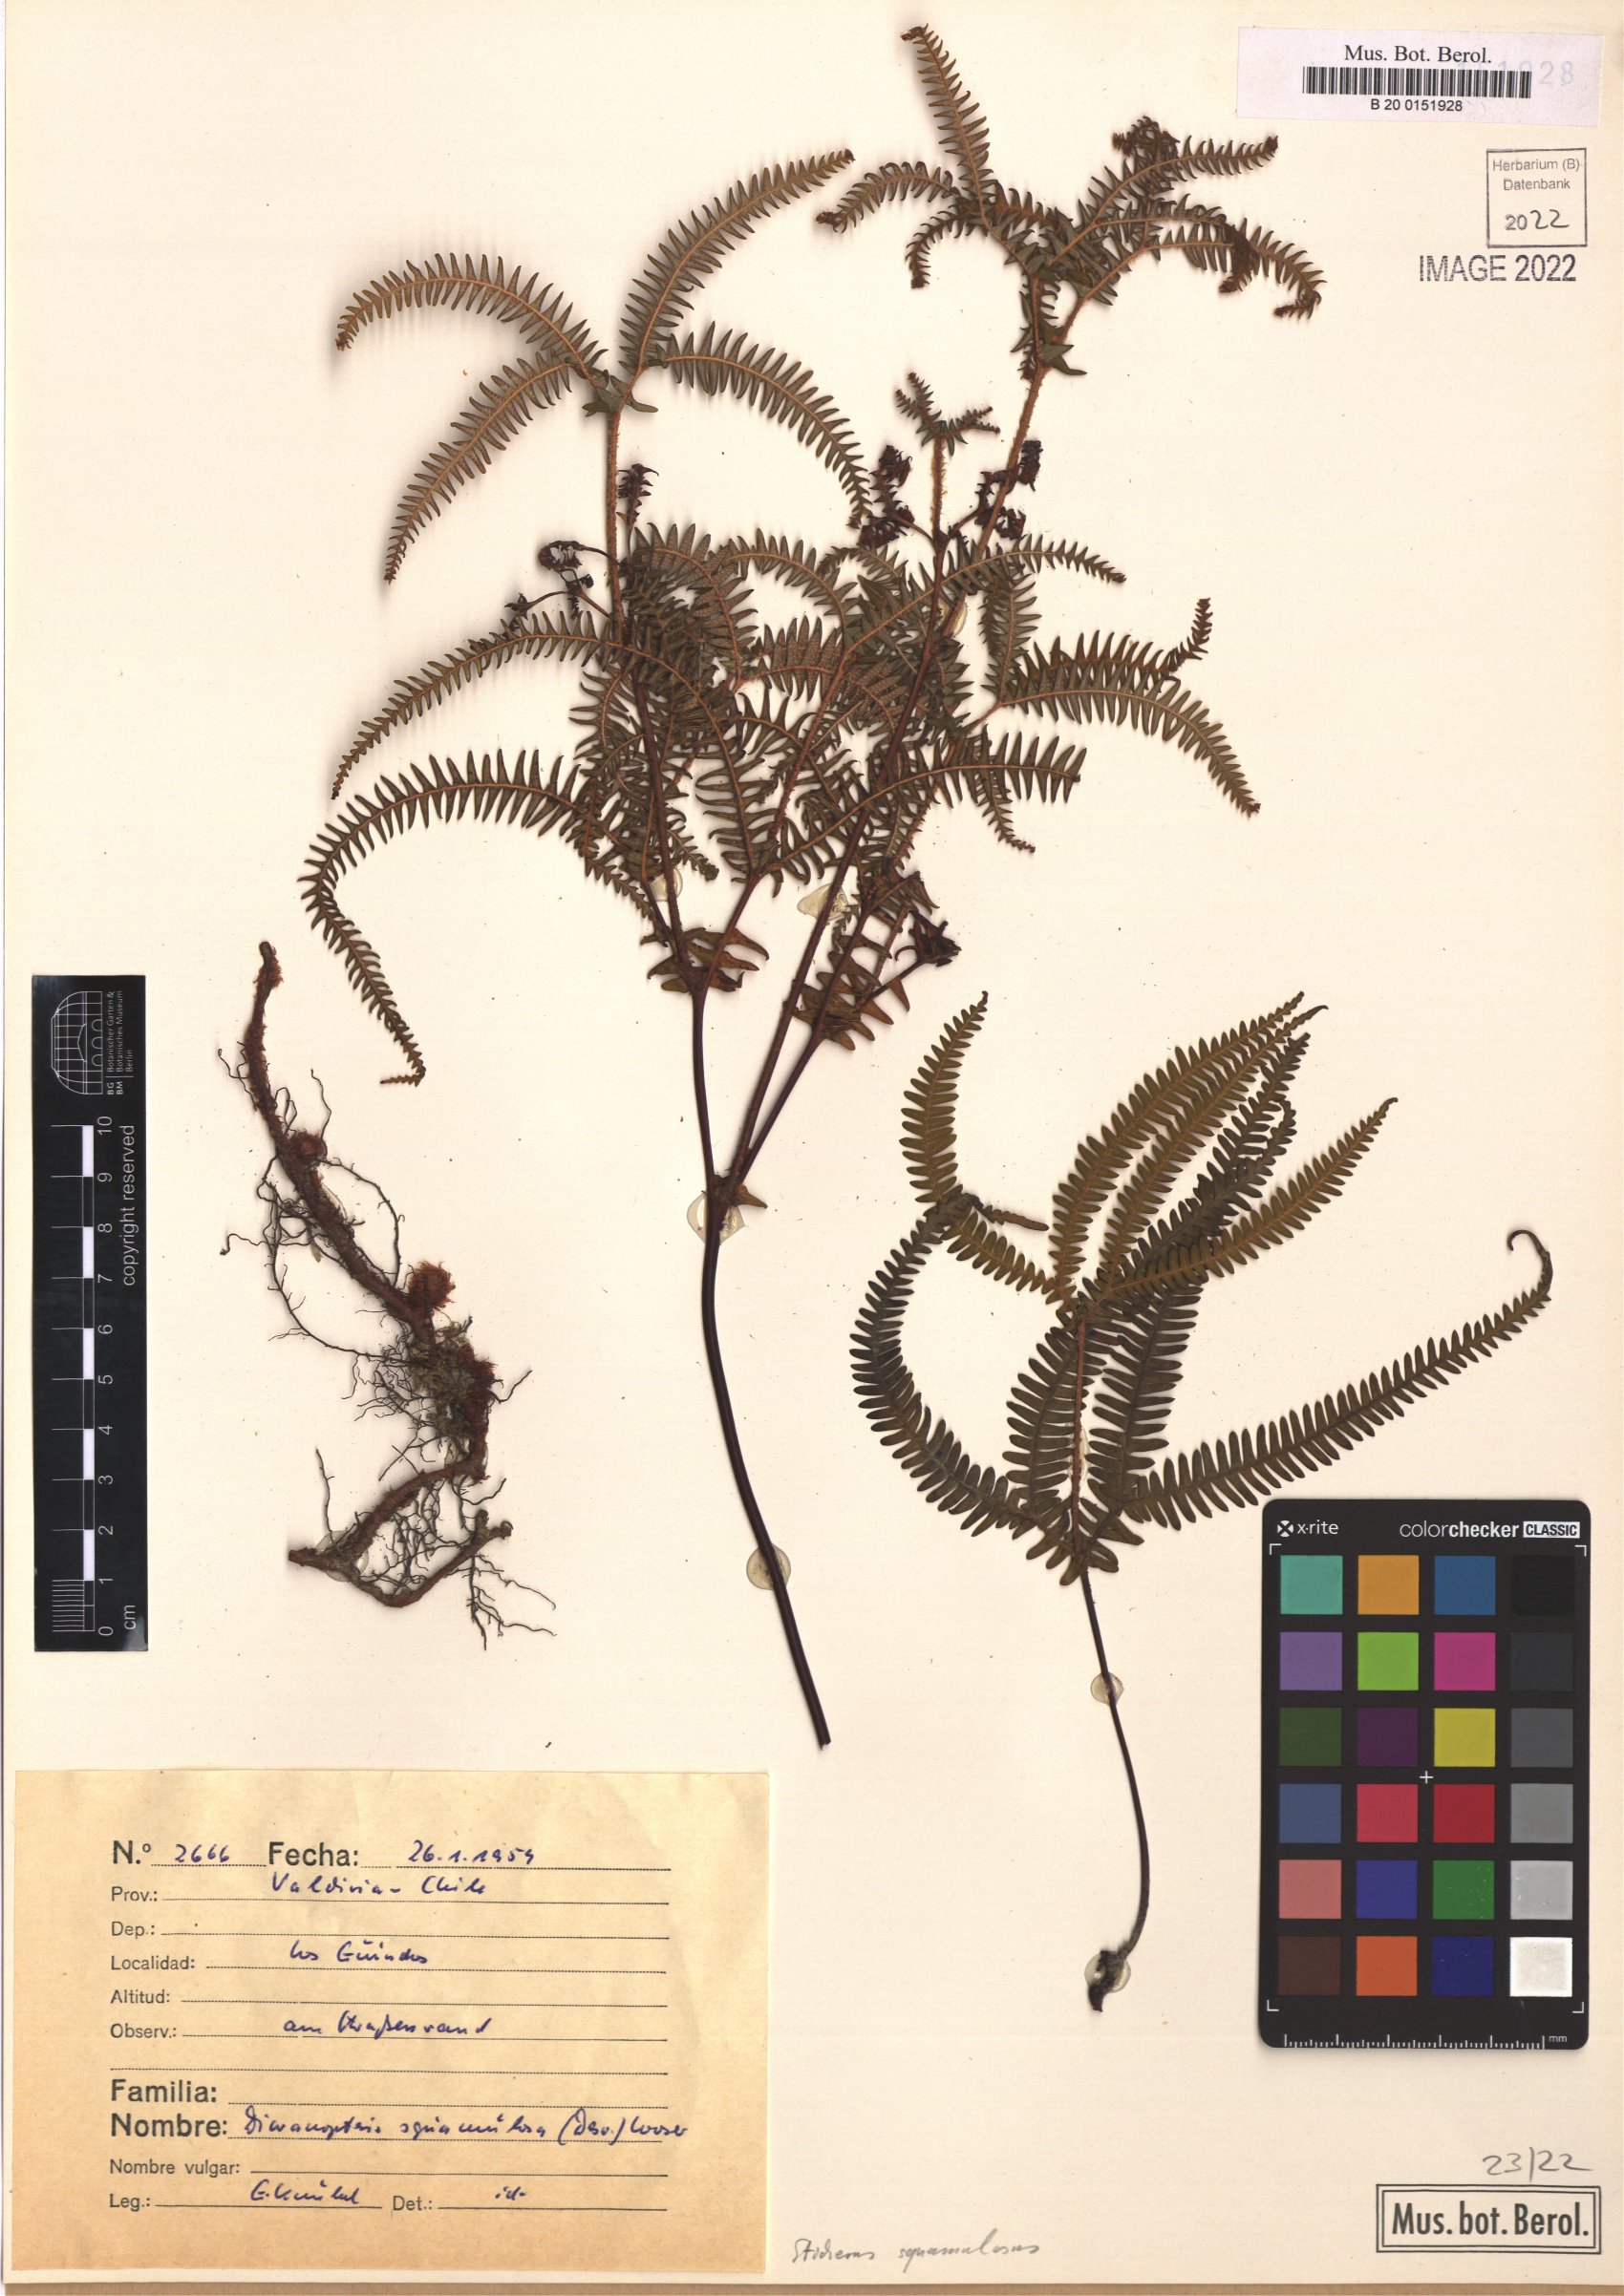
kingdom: Plantae
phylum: Tracheophyta
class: Polypodiopsida
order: Gleicheniales
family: Gleicheniaceae
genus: Sticherus
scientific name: Sticherus squamulosus
